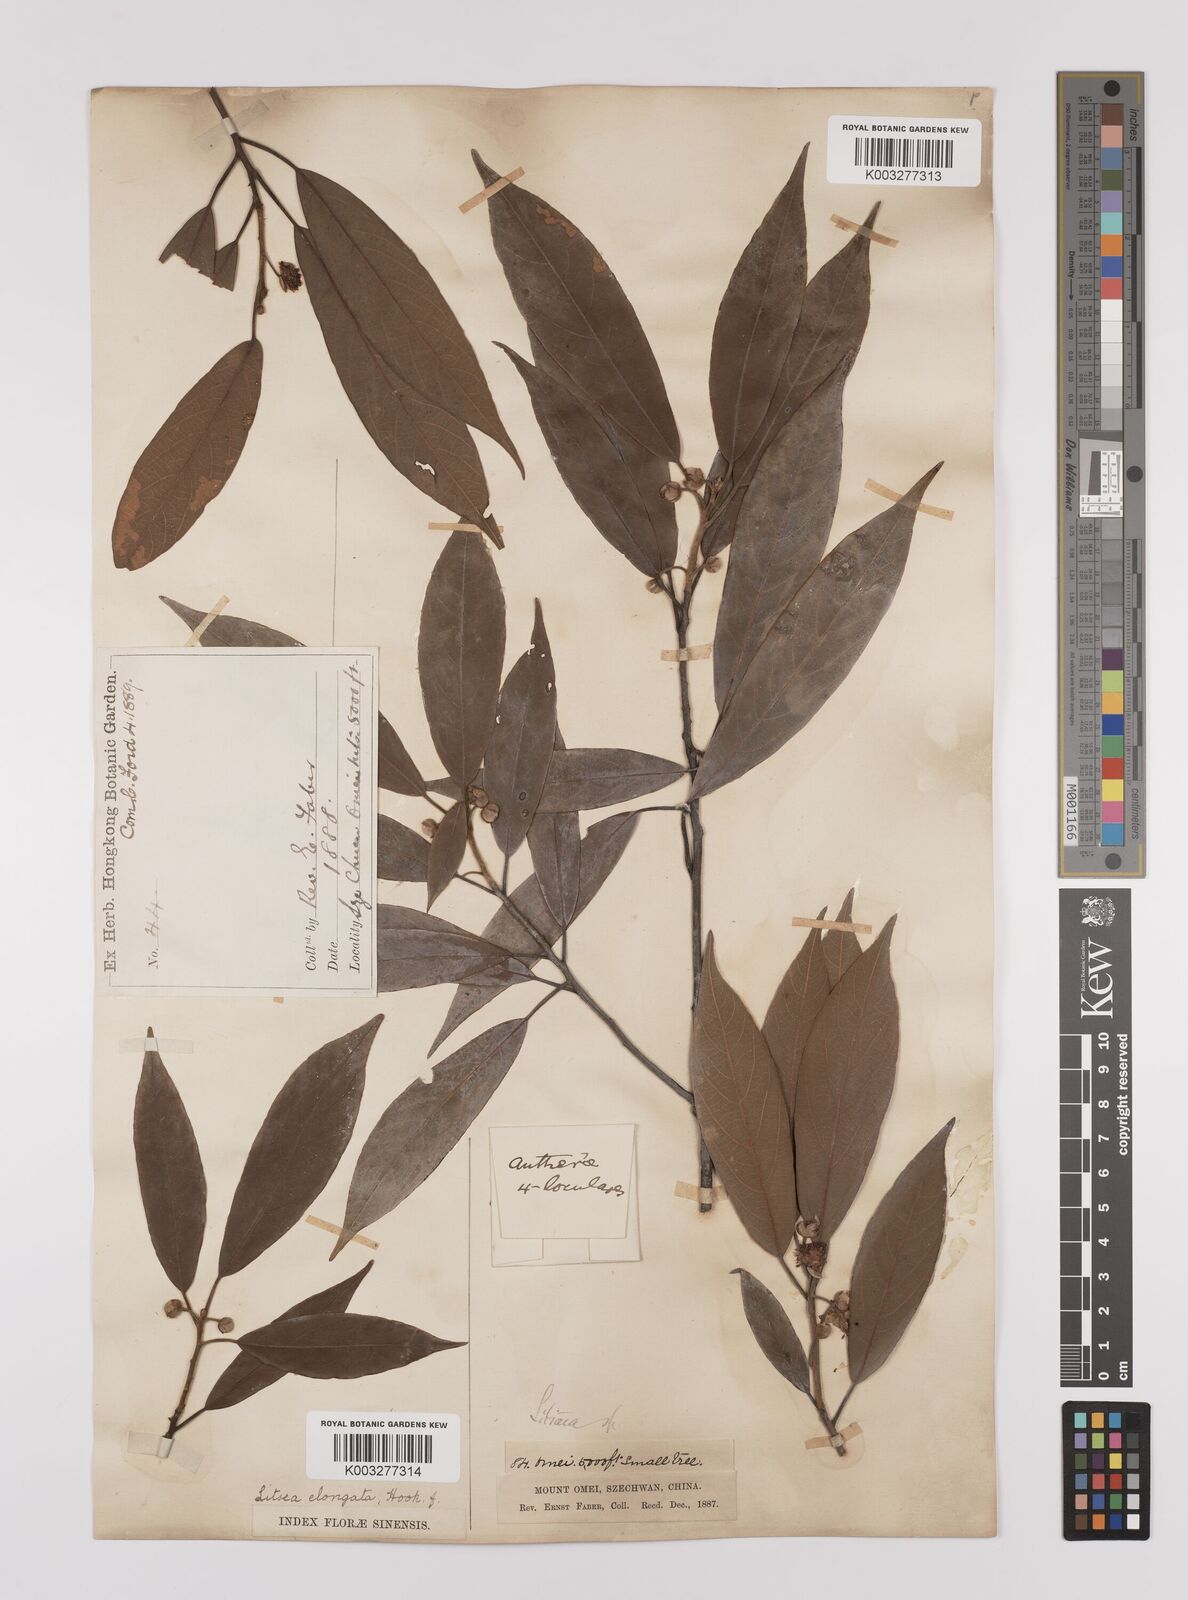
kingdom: Plantae
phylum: Tracheophyta
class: Magnoliopsida
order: Laurales
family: Lauraceae
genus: Litsea
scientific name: Litsea elongata
